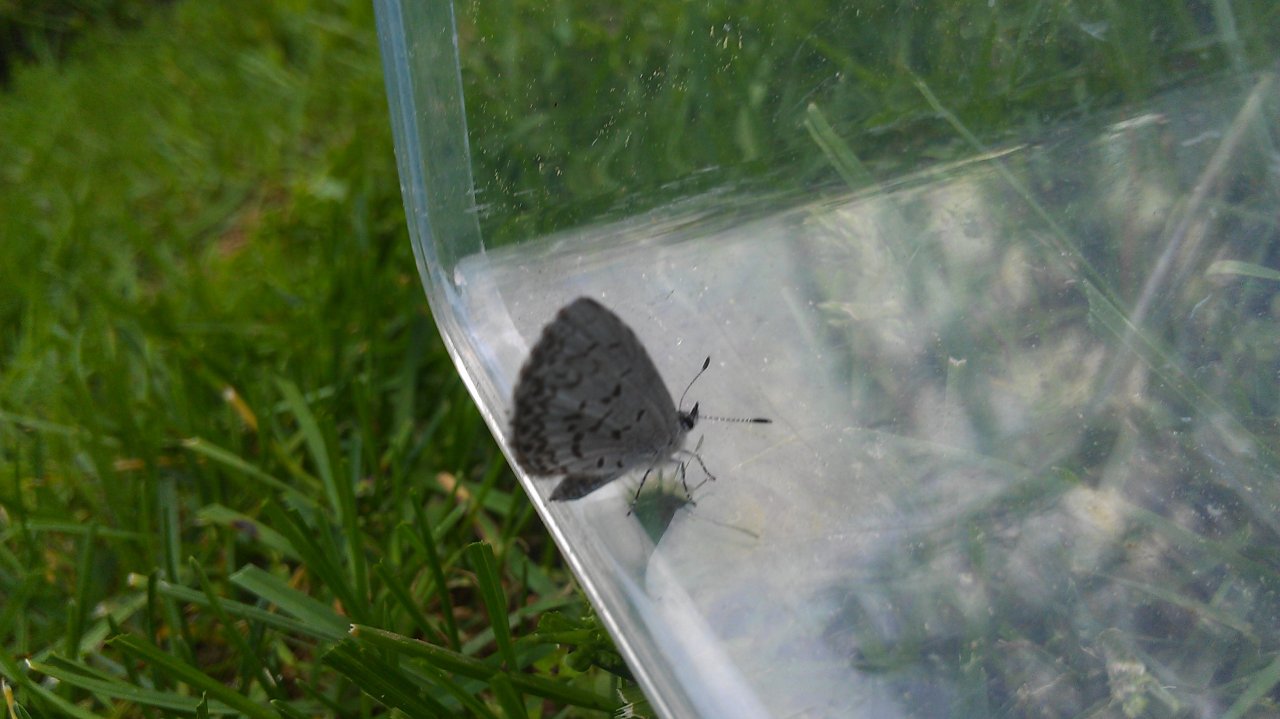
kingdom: Animalia
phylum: Arthropoda
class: Insecta
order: Lepidoptera
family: Lycaenidae
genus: Celastrina
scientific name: Celastrina lucia
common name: Northern Spring Azure
